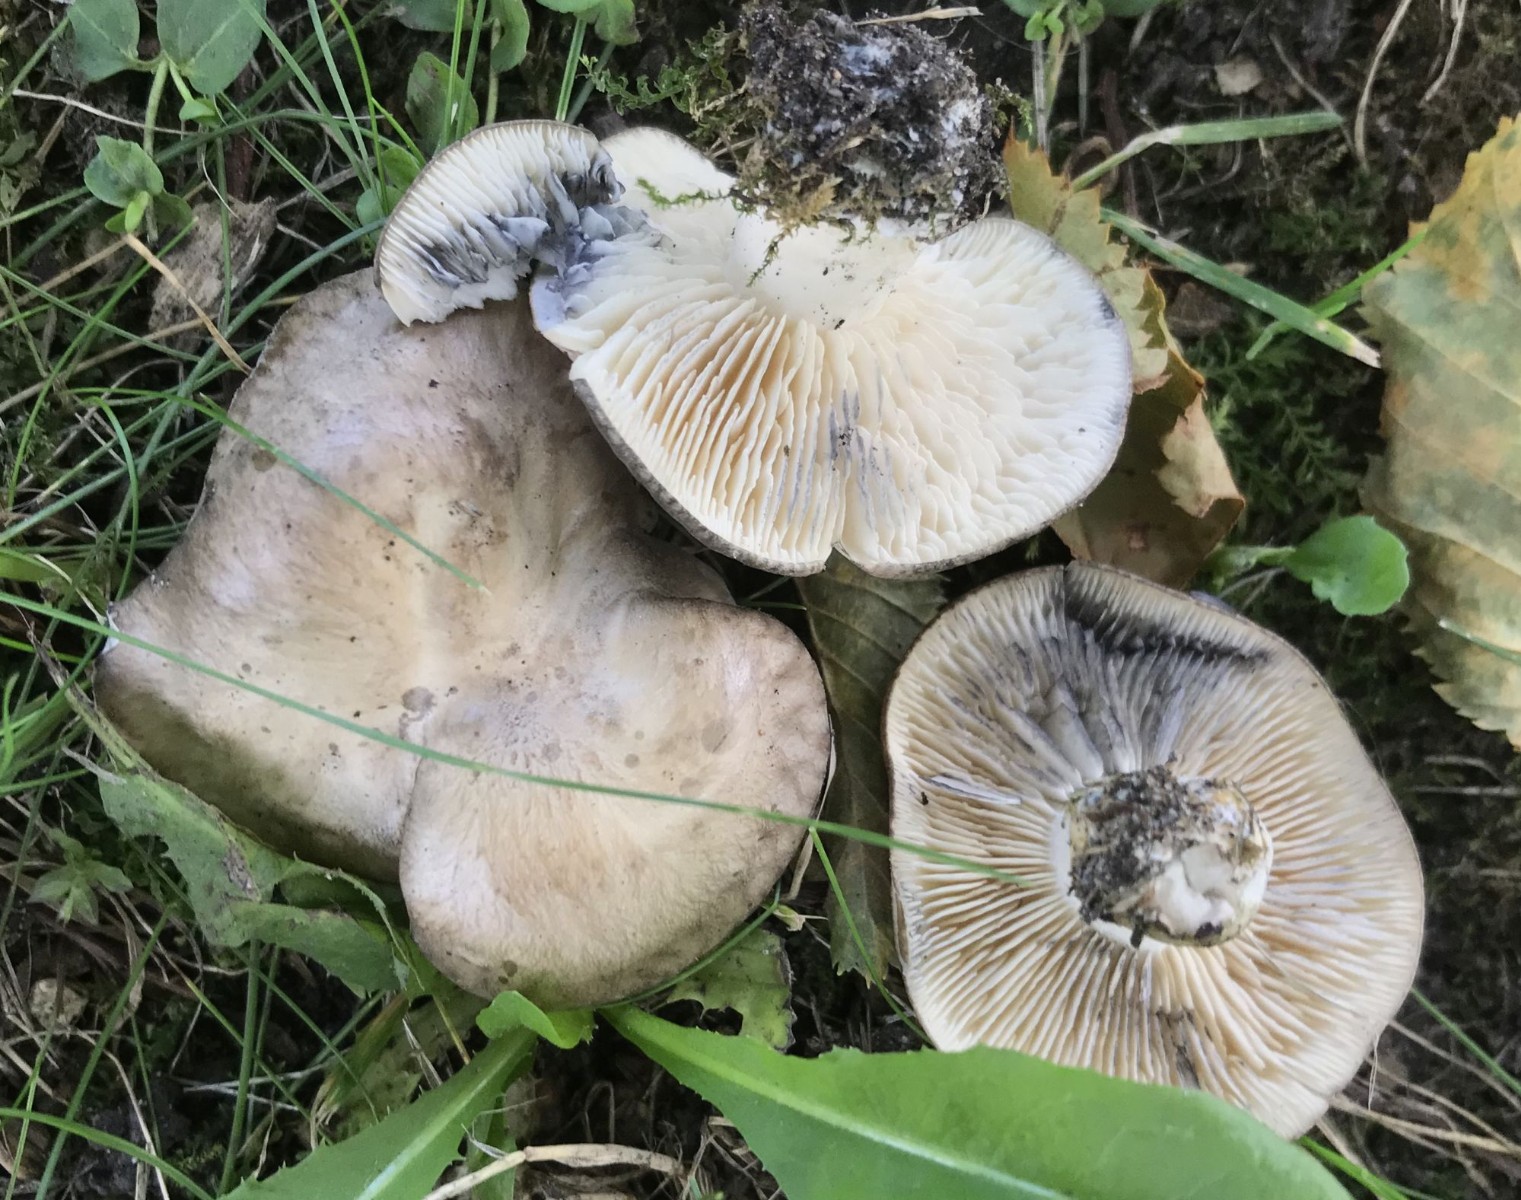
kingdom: Fungi
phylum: Basidiomycota
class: Agaricomycetes
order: Agaricales
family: Lyophyllaceae
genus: Lyophyllum
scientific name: Lyophyllum paelochroum
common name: blånende gråblad
